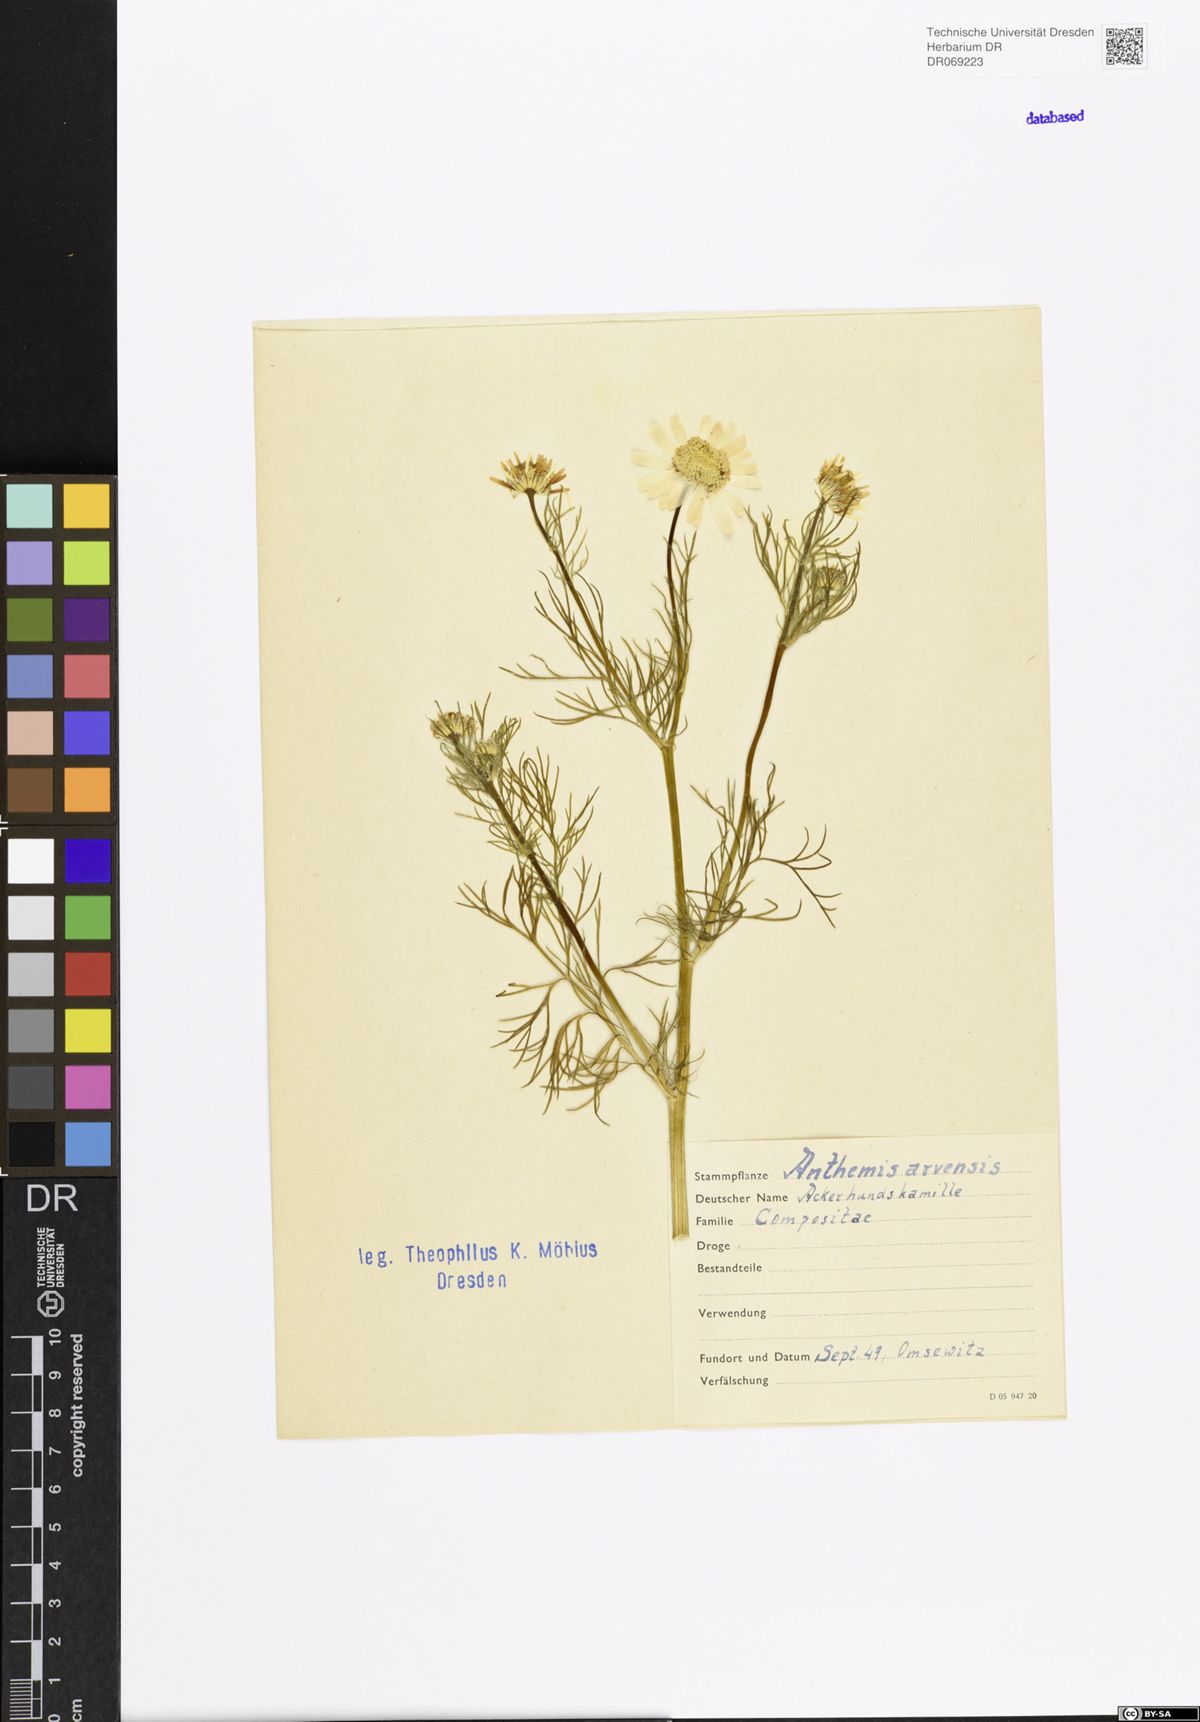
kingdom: Plantae
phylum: Tracheophyta
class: Magnoliopsida
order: Asterales
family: Asteraceae
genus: Anthemis
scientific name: Anthemis arvensis
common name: Corn chamomile
